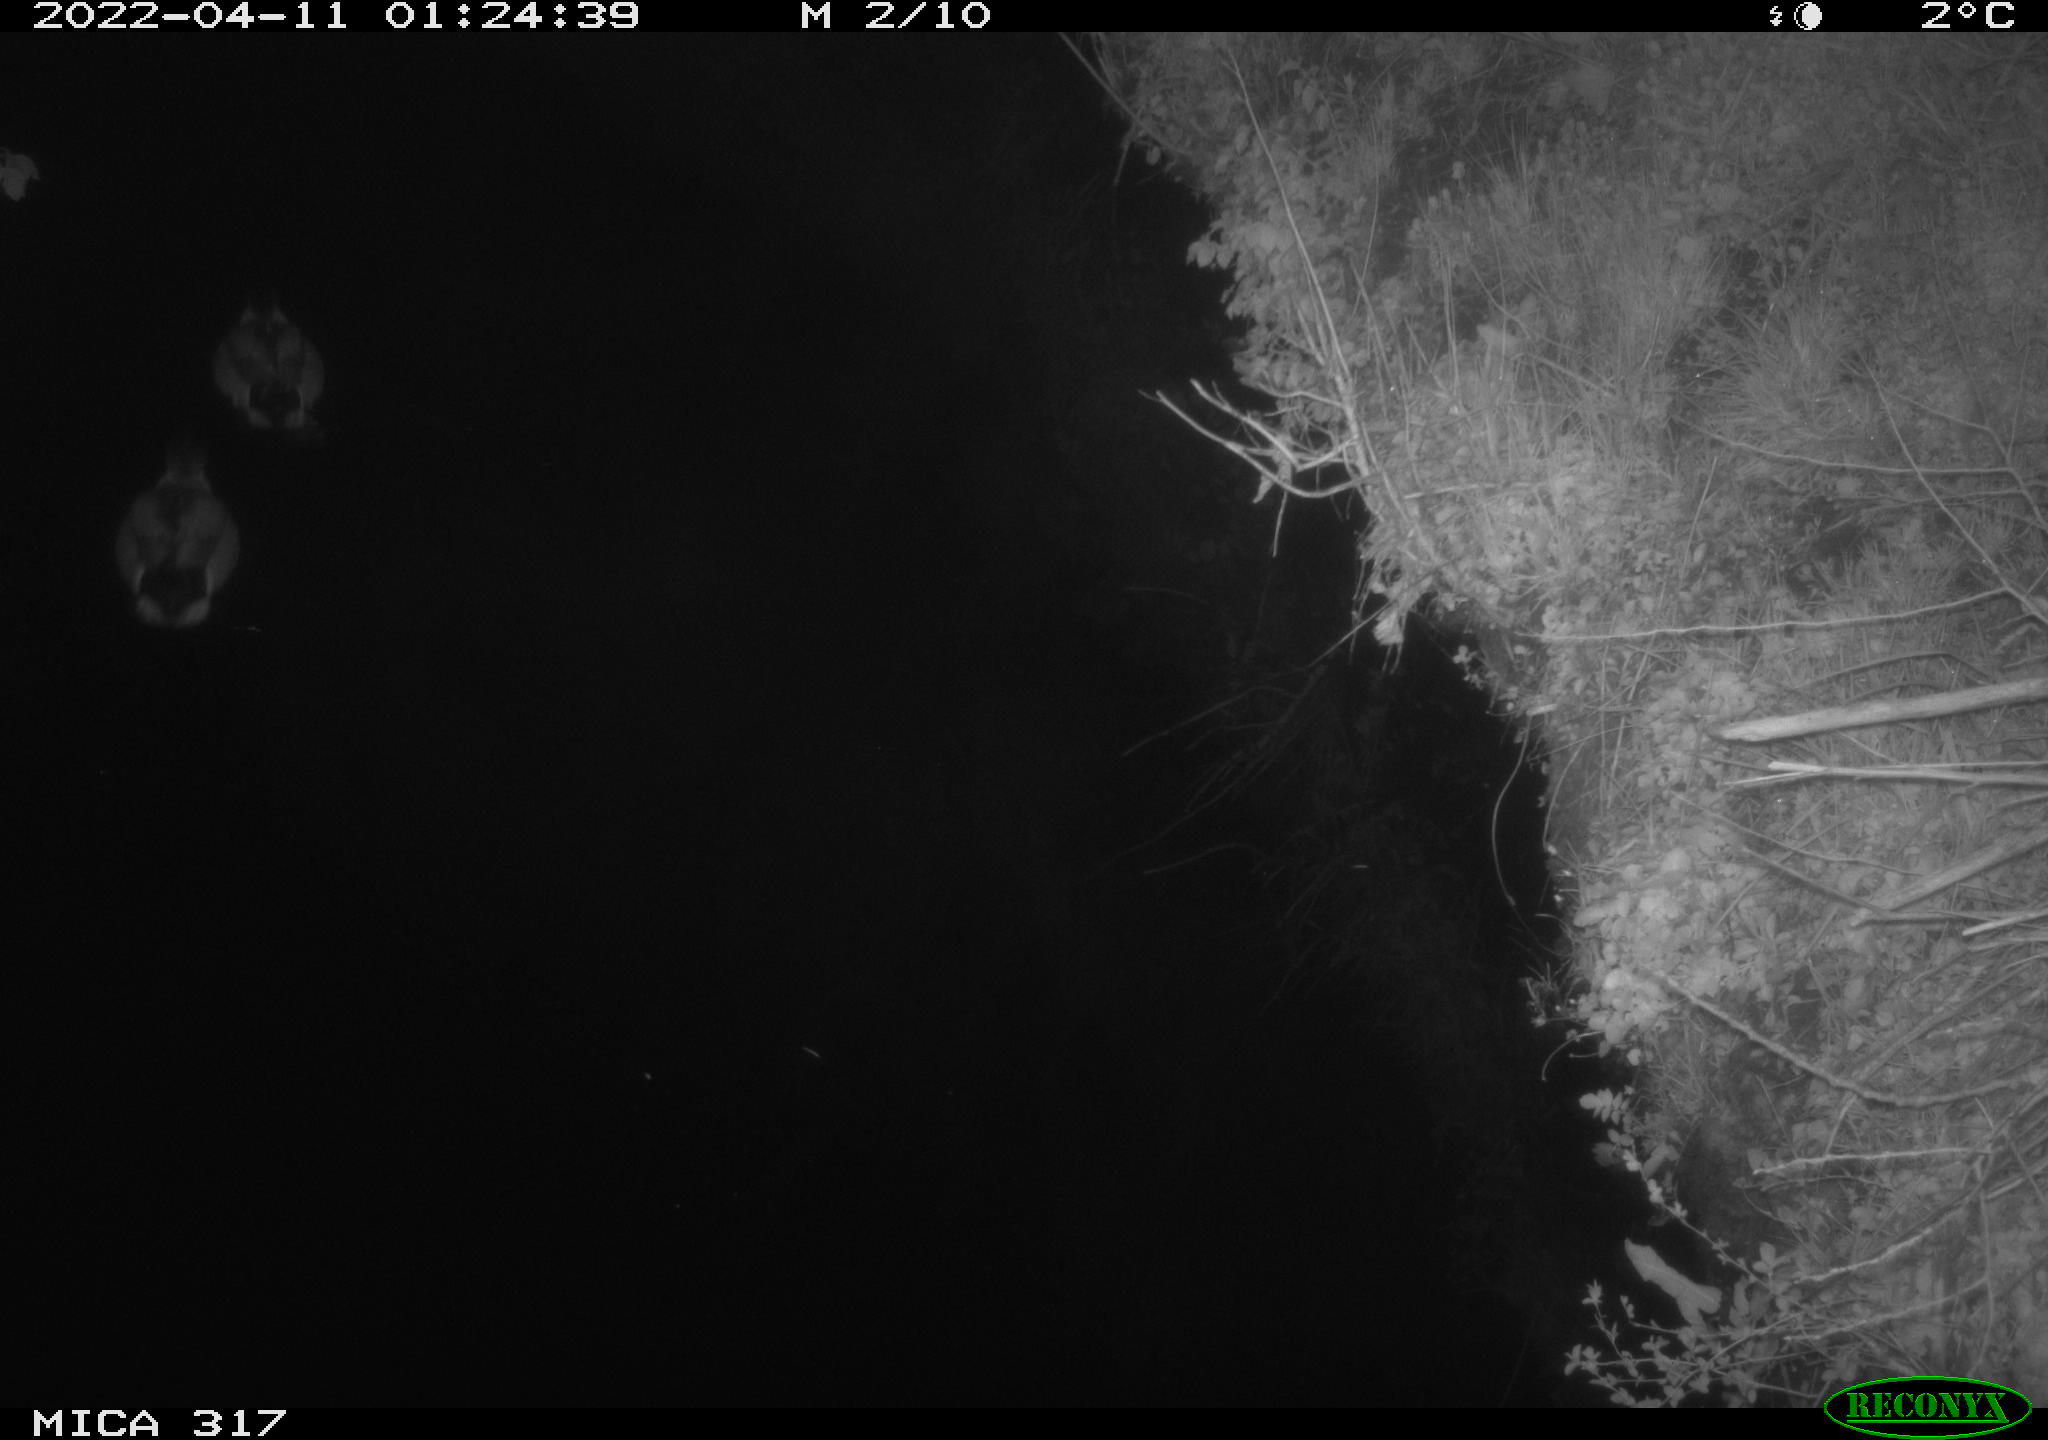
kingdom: Animalia
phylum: Chordata
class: Aves
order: Anseriformes
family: Anatidae
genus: Anas
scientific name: Anas platyrhynchos
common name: Mallard
